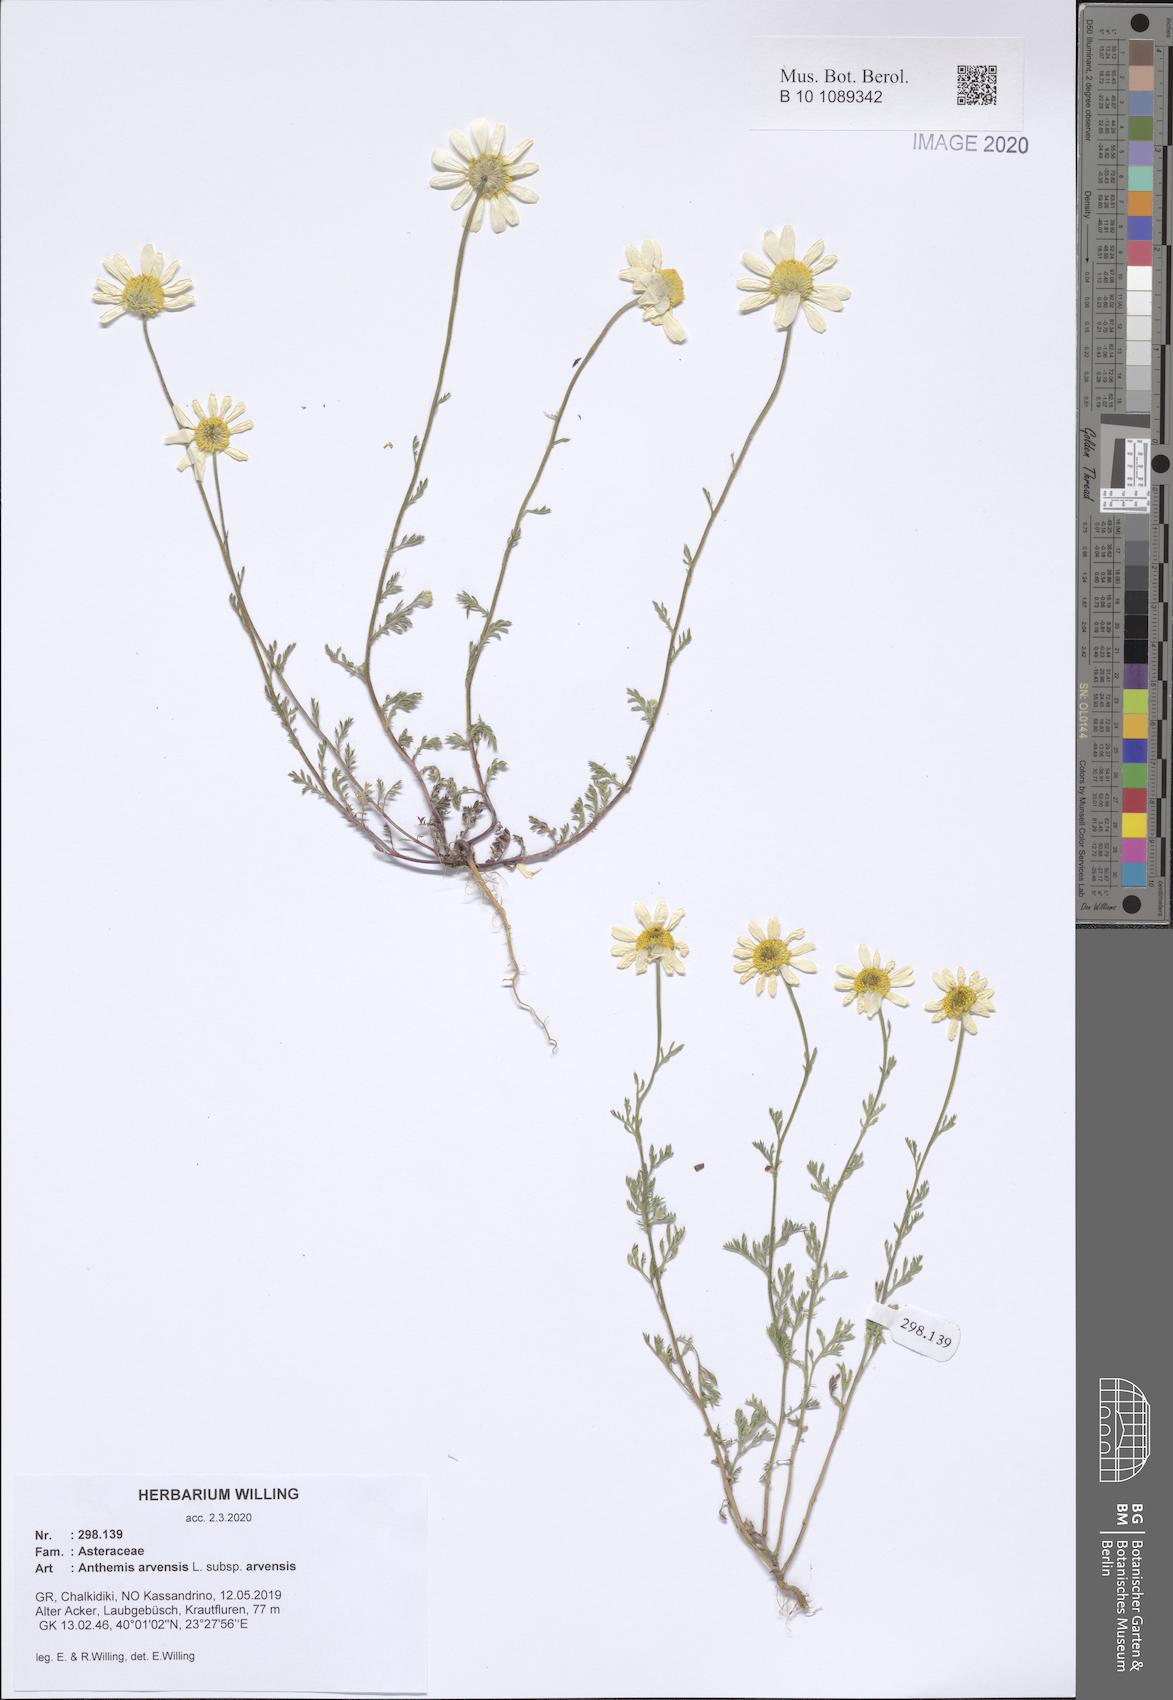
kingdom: Plantae
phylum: Tracheophyta
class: Magnoliopsida
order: Asterales
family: Asteraceae
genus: Anthemis
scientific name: Anthemis arvensis
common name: Corn chamomile
